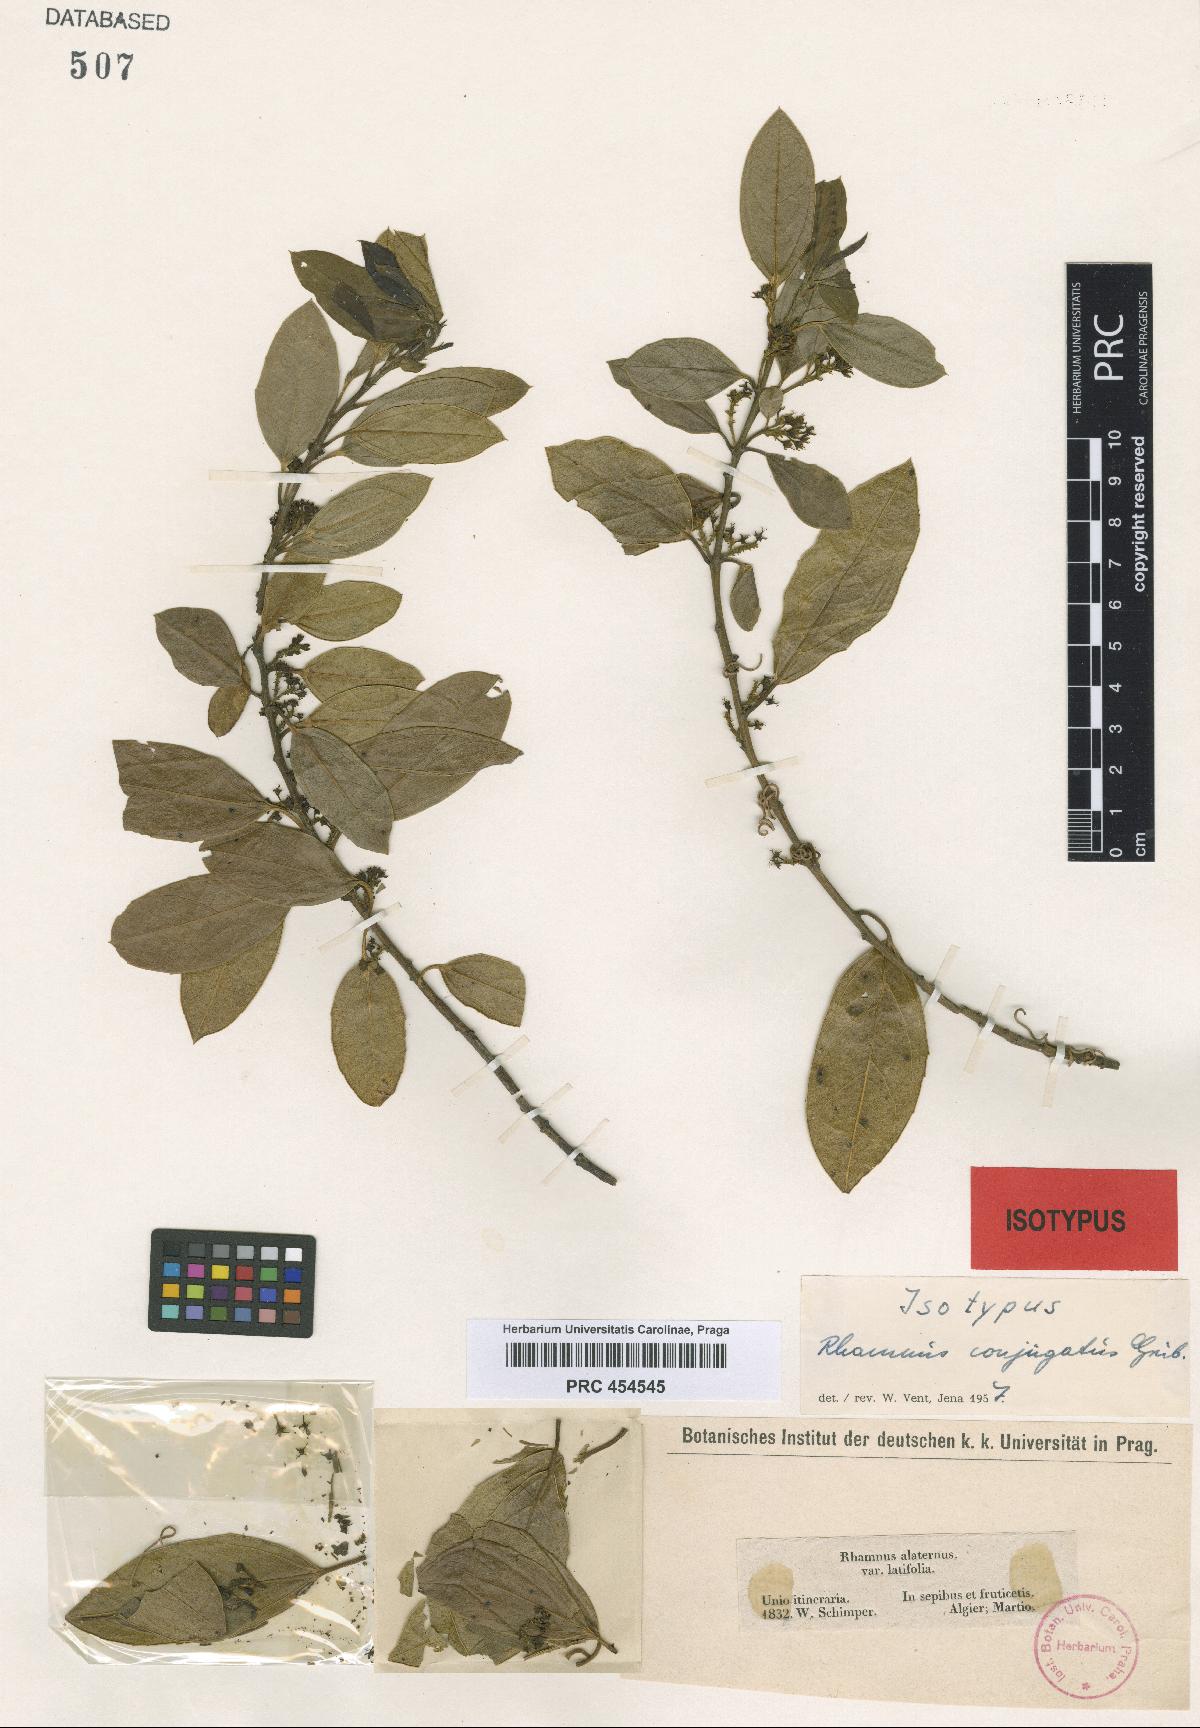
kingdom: Plantae
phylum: Tracheophyta
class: Magnoliopsida
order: Rosales
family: Rhamnaceae
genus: Rhamnus
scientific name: Rhamnus conjugata
